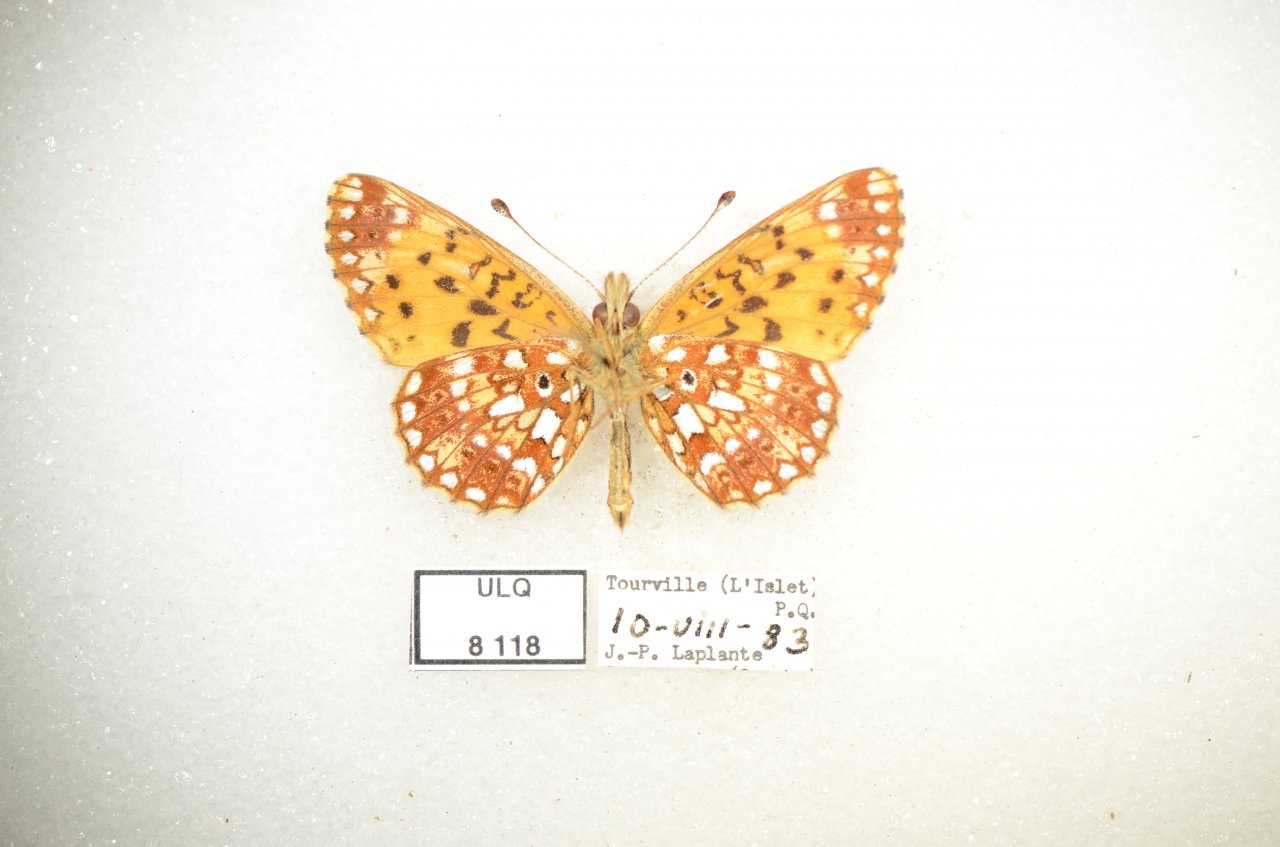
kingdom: Animalia
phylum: Arthropoda
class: Insecta
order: Lepidoptera
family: Nymphalidae
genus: Boloria
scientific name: Boloria selene
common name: Silver-bordered Fritillary
